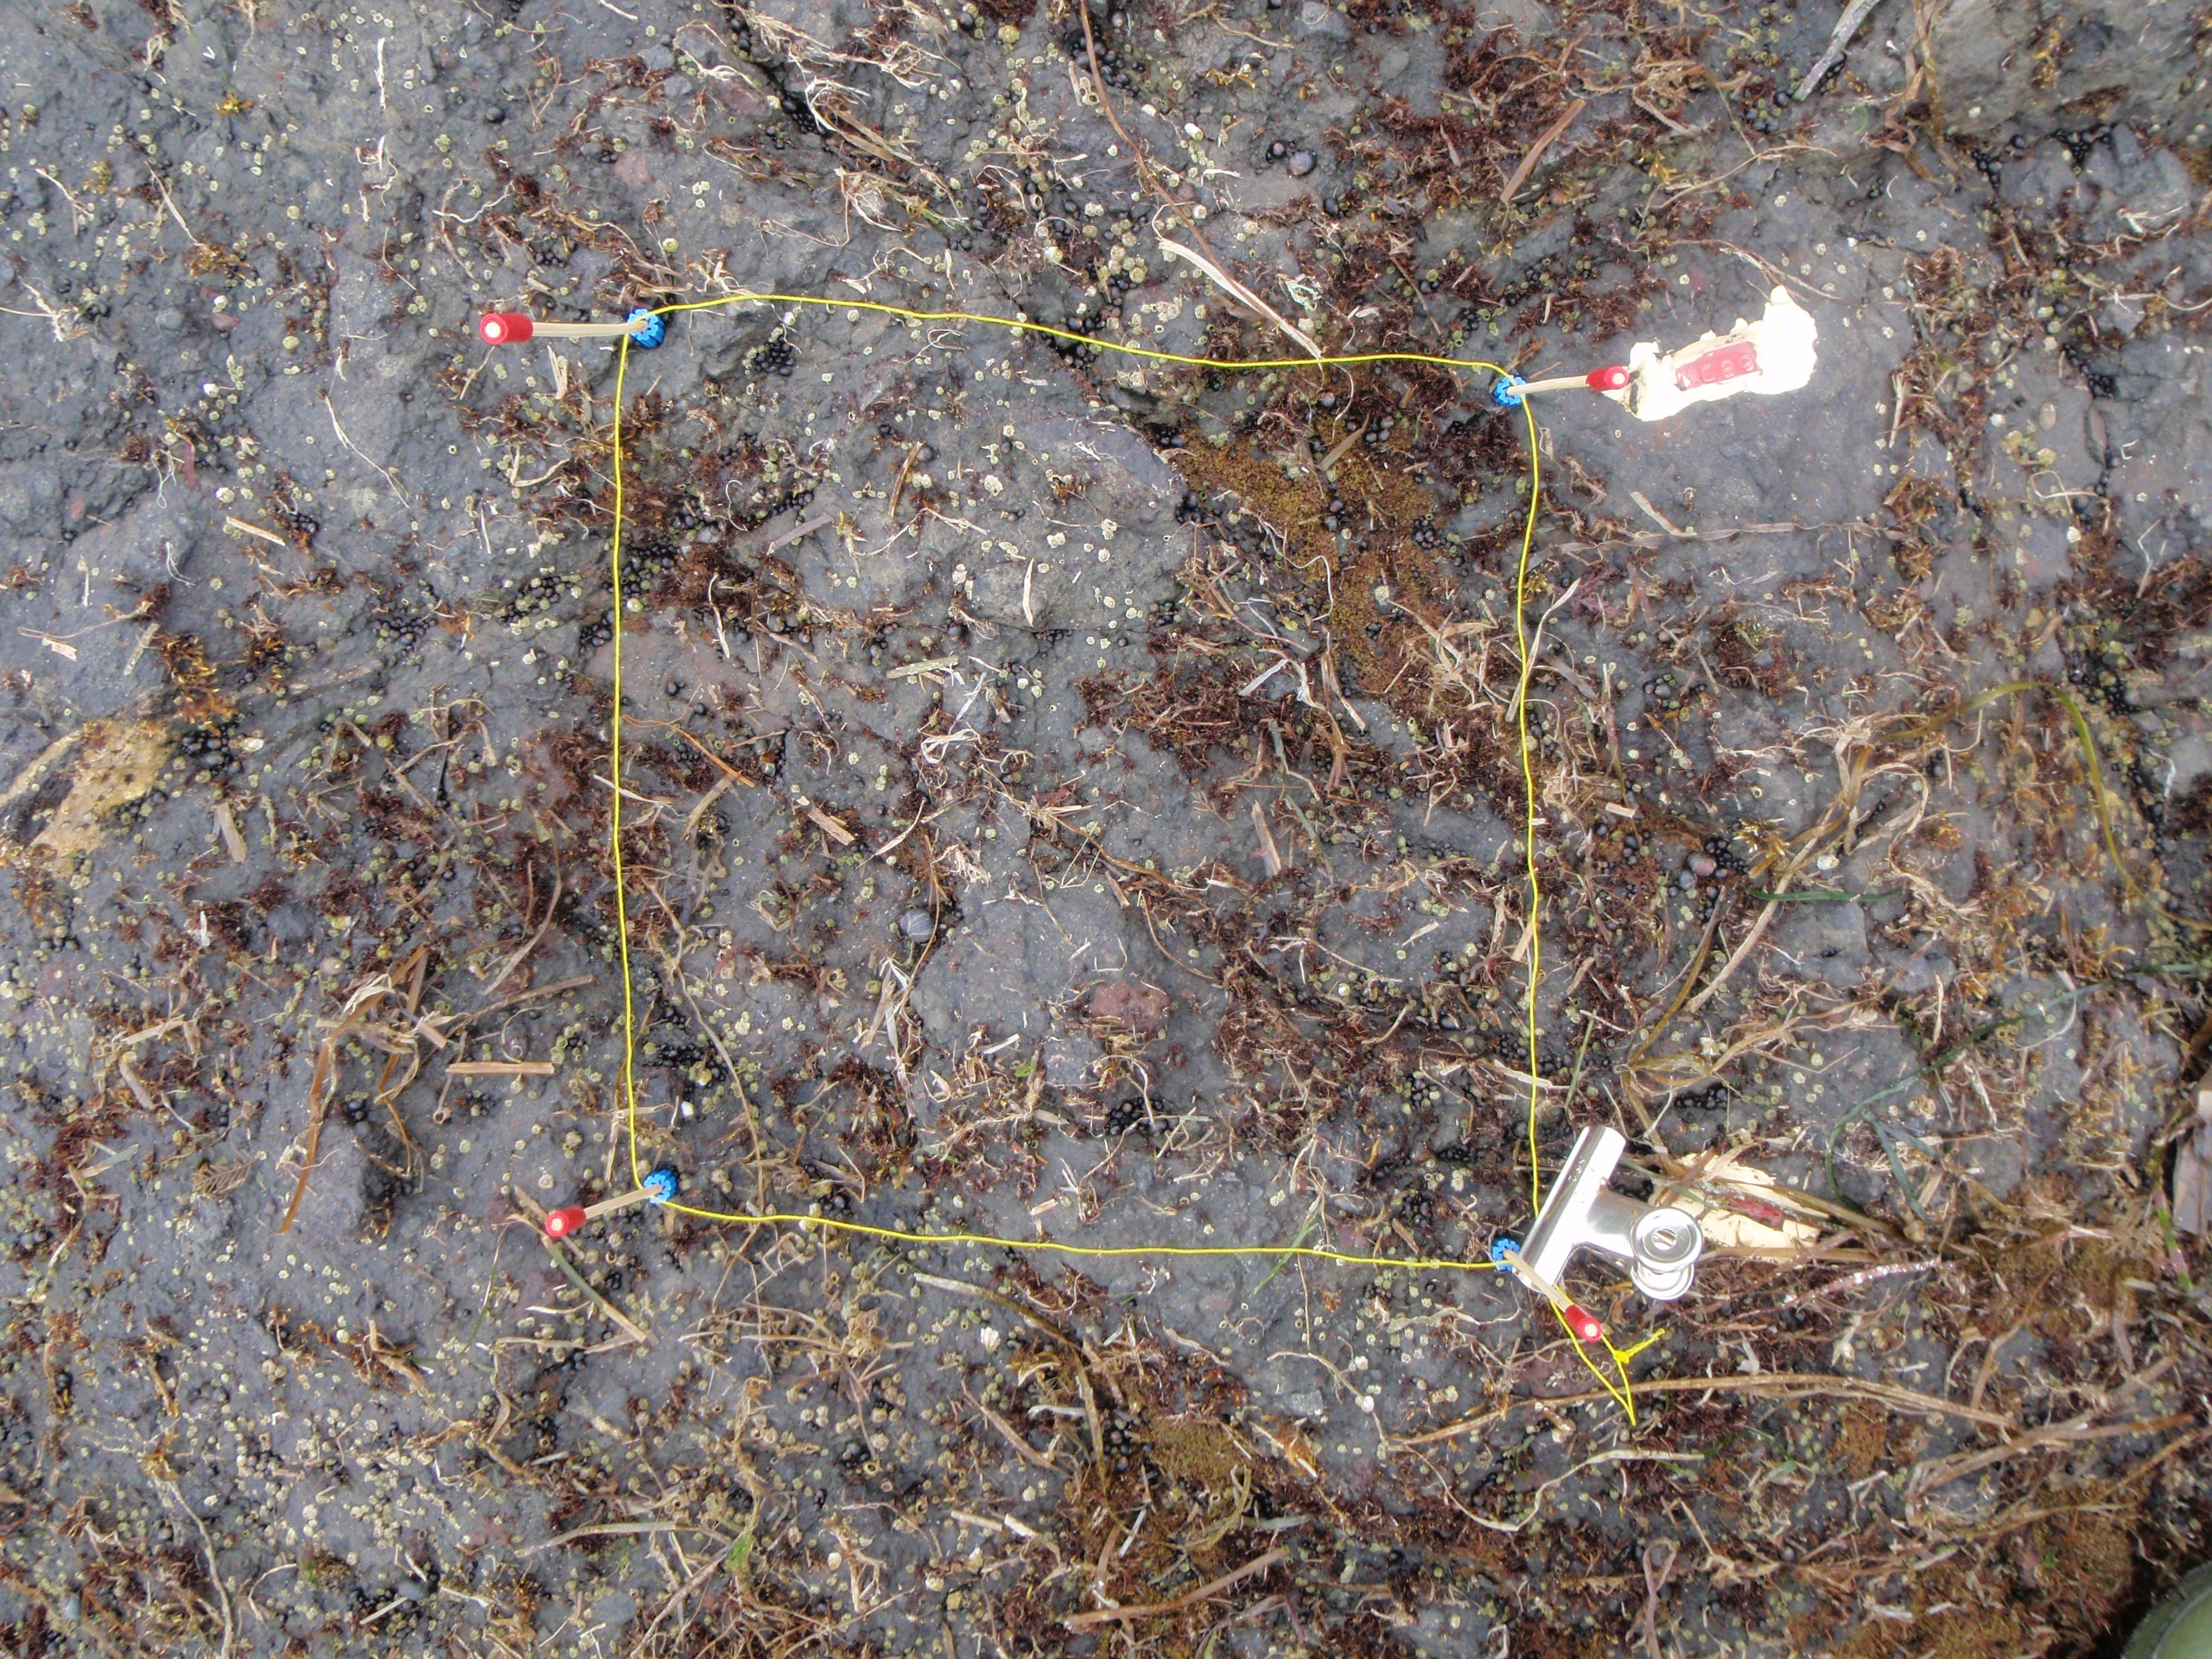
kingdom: Animalia
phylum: Arthropoda
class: Maxillopoda
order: Sessilia
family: Chthamalidae
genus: Chthamalus
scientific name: Chthamalus dalli
